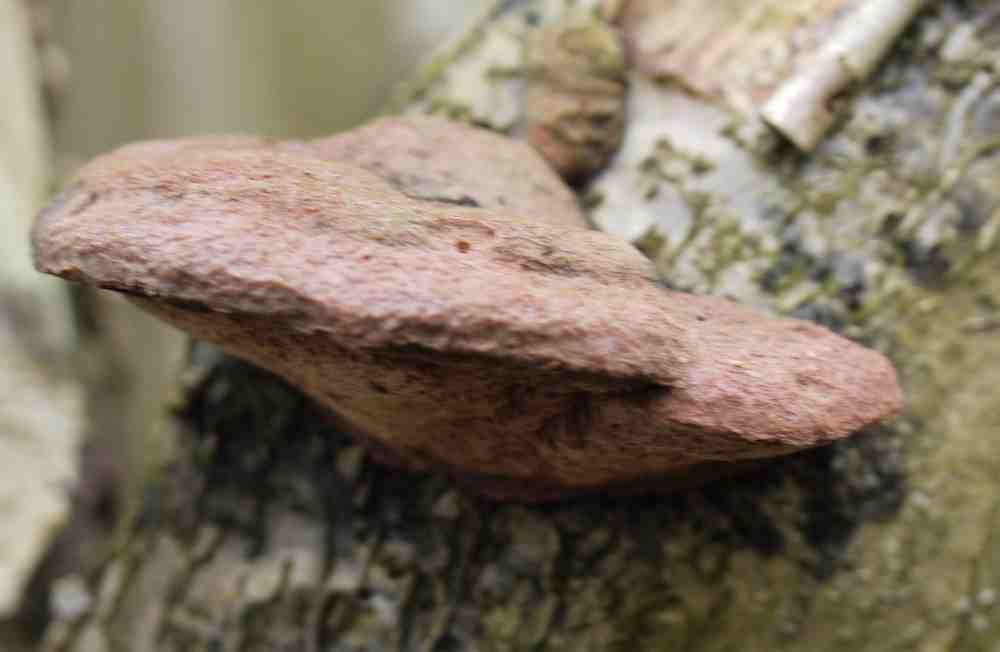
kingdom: Fungi
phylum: Basidiomycota
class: Agaricomycetes
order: Polyporales
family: Phanerochaetaceae
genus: Hapalopilus
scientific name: Hapalopilus rutilans
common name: rødlig okkerporesvamp
